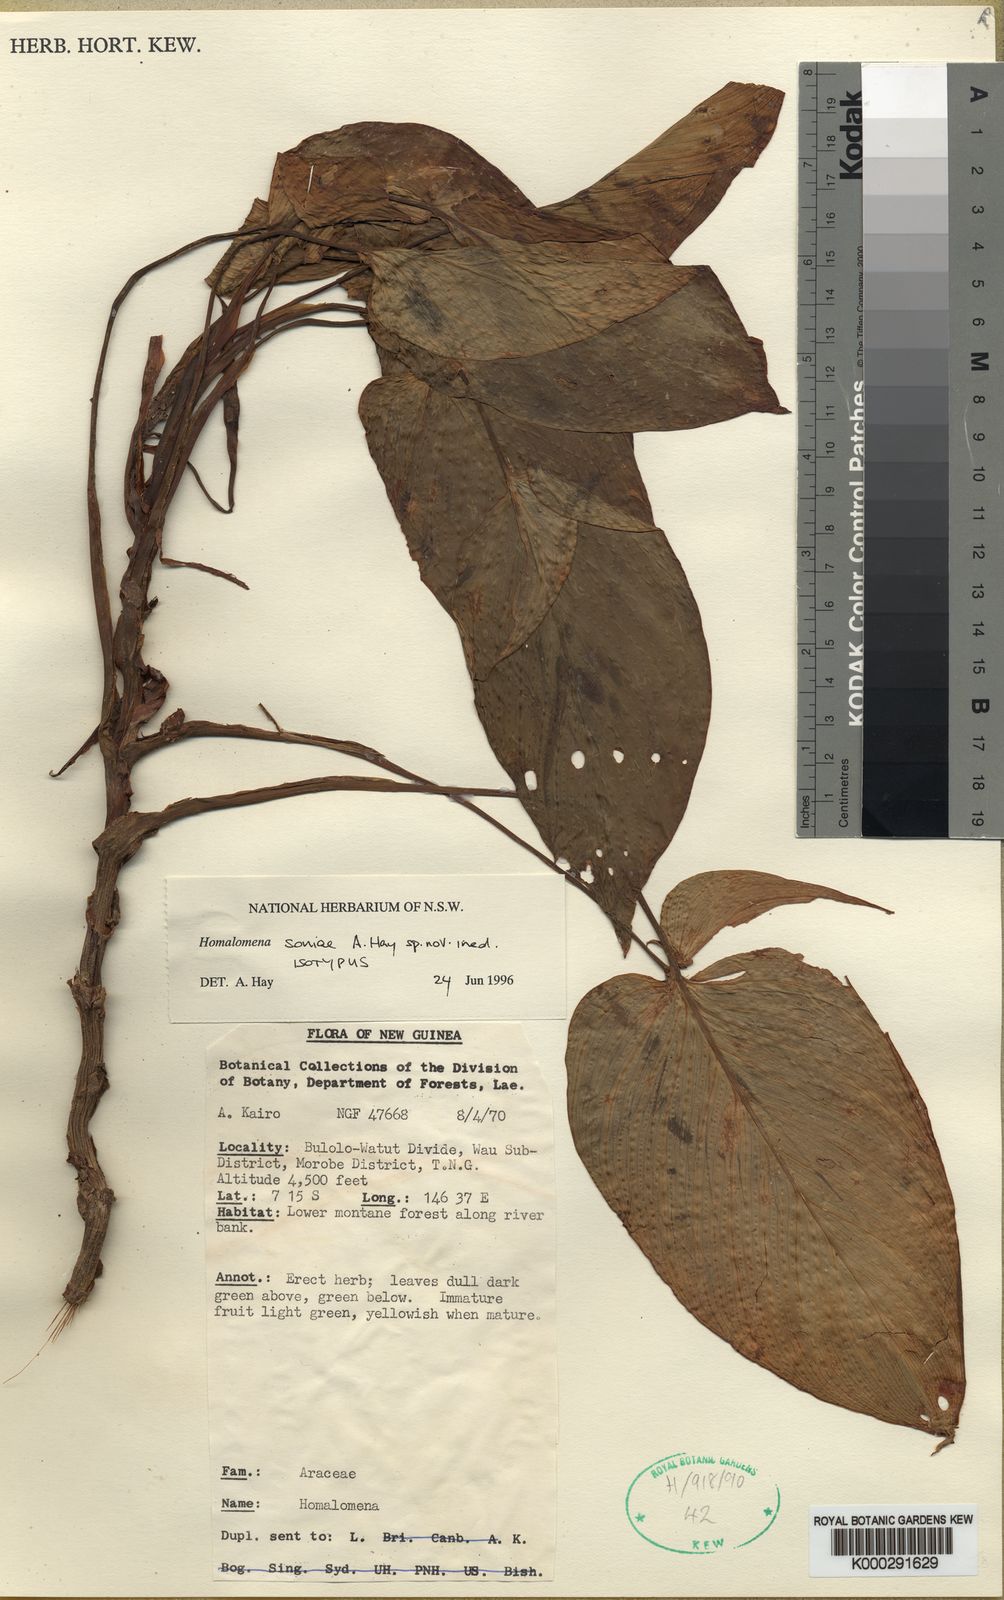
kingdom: Plantae
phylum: Tracheophyta
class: Liliopsida
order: Alismatales
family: Araceae
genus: Homalomena
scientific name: Homalomena soniae
